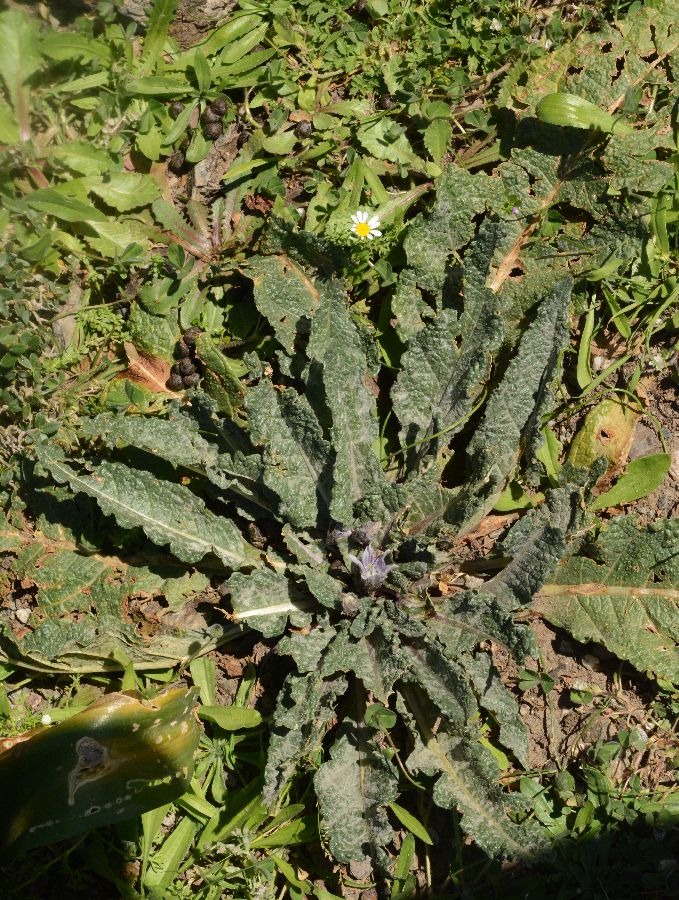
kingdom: Plantae
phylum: Tracheophyta
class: Magnoliopsida
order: Solanales
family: Solanaceae
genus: Mandragora
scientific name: Mandragora officinarum
